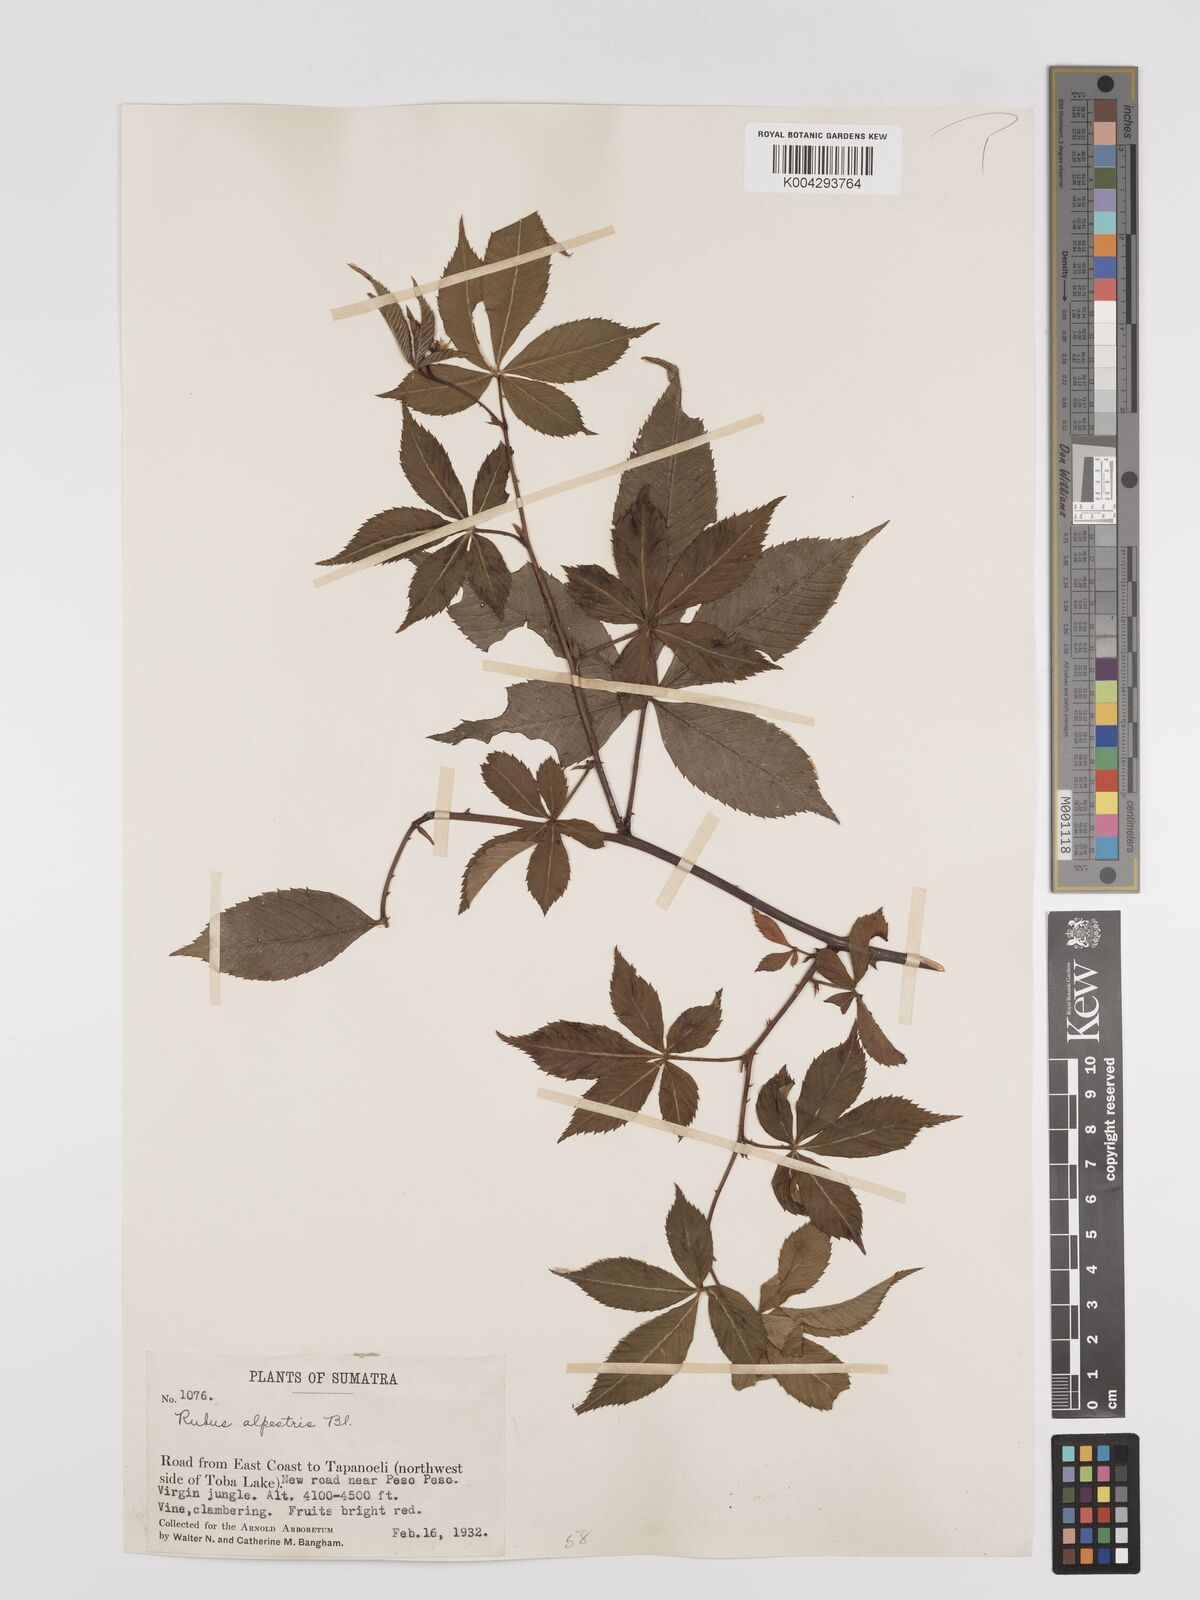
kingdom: Plantae
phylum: Tracheophyta
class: Magnoliopsida
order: Rosales
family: Rosaceae
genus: Rubus
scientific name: Rubus alpestris
